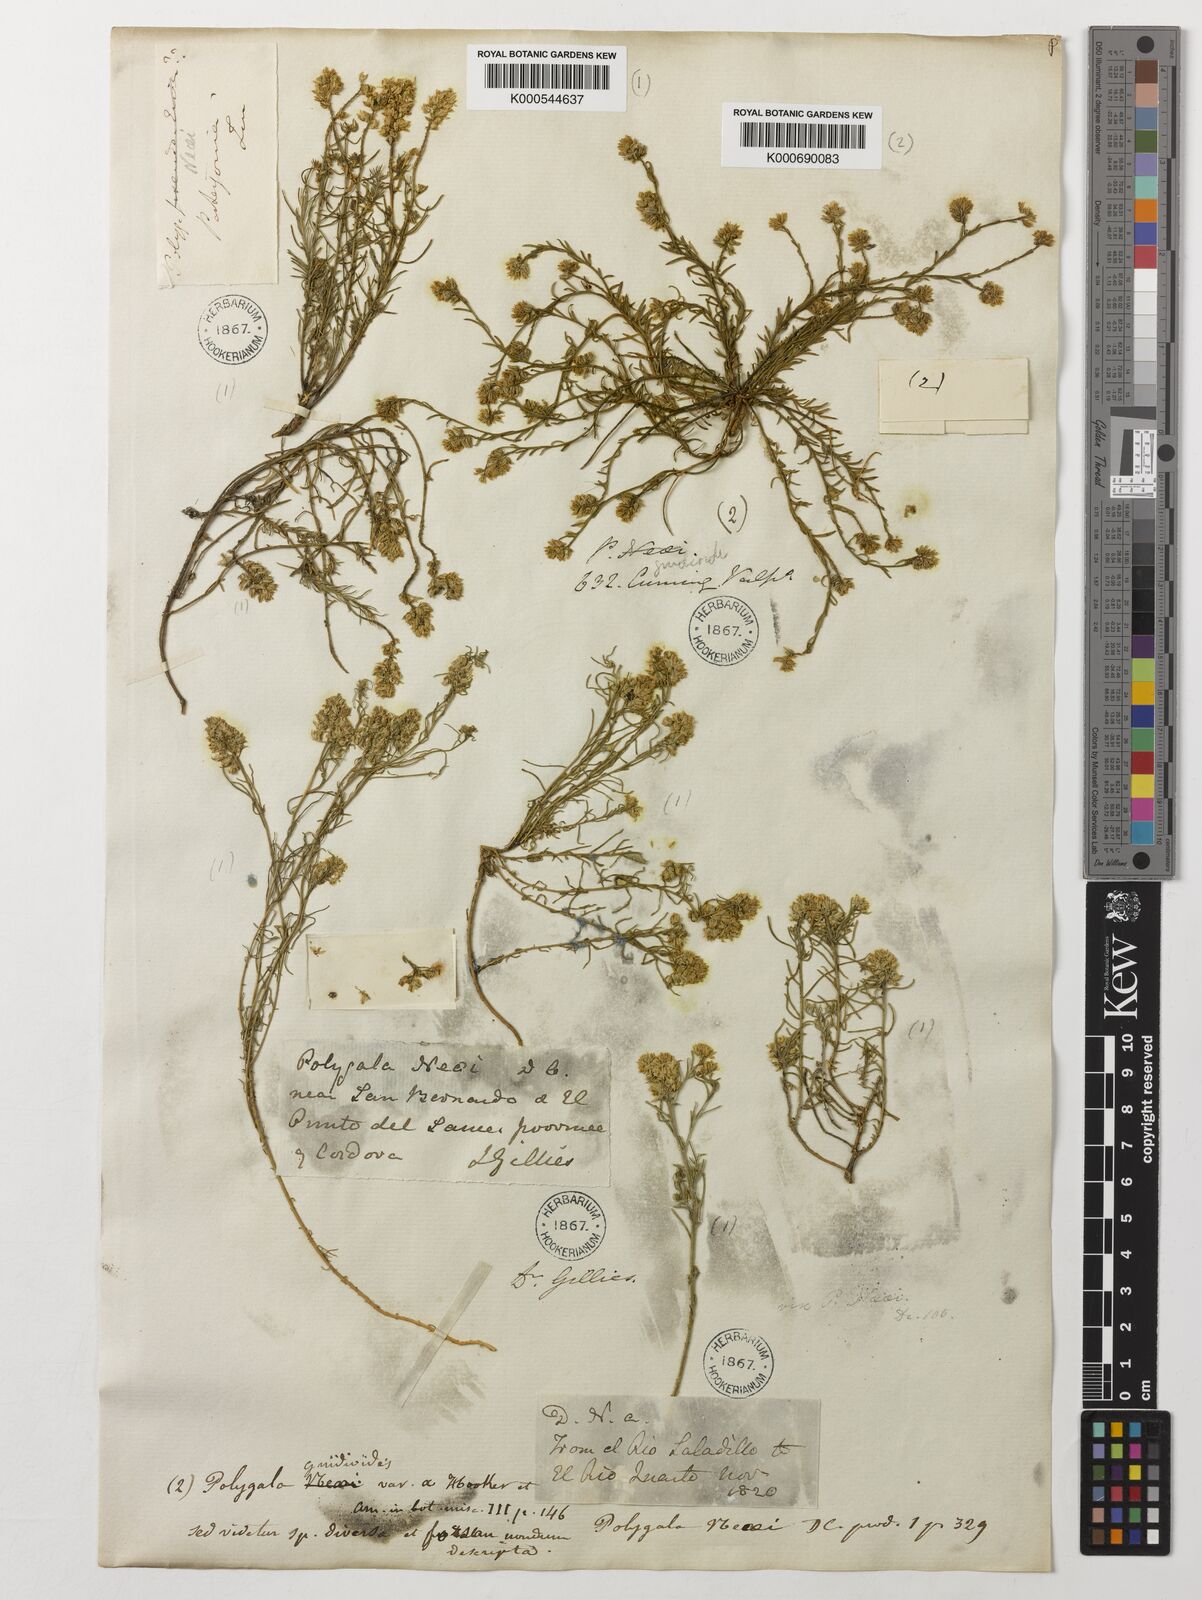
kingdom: Plantae
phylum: Tracheophyta
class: Magnoliopsida
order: Fabales
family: Polygalaceae
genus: Polygala
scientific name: Polygala gnidioides
